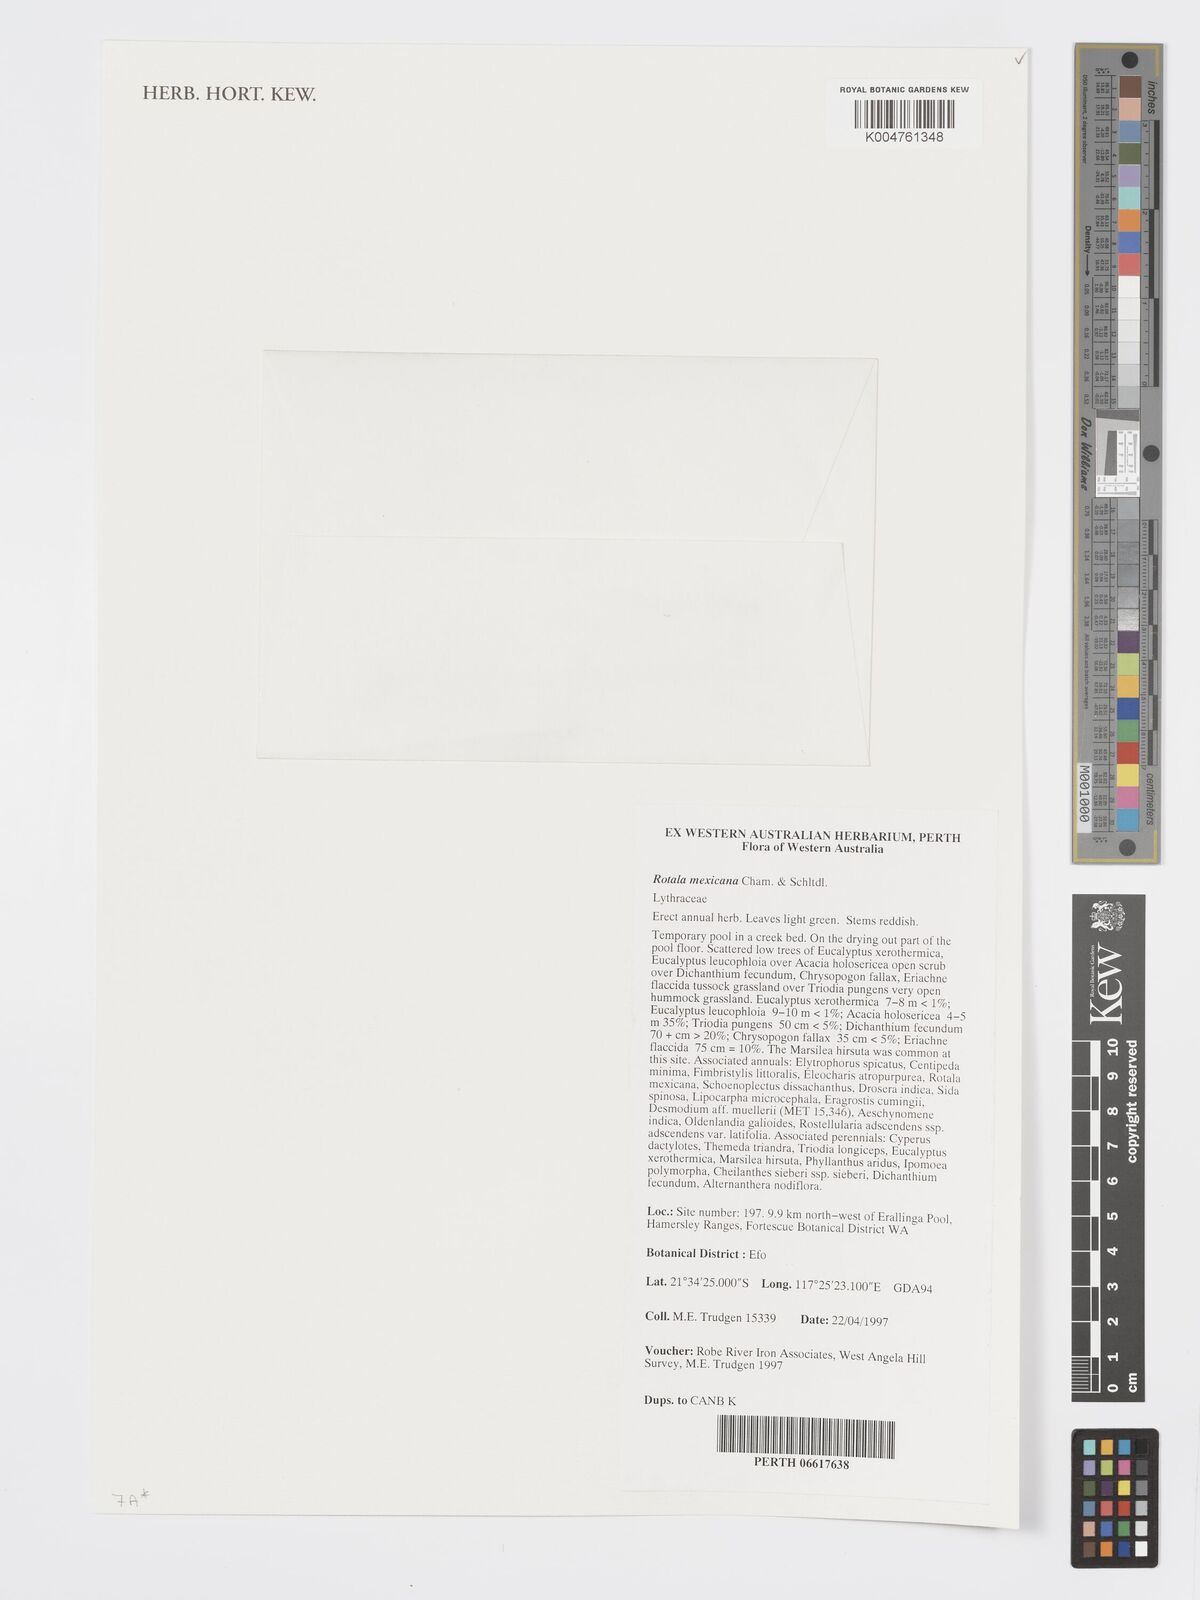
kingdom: Plantae
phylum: Tracheophyta
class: Magnoliopsida
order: Myrtales
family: Lythraceae
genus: Rotala
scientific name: Rotala mexicana
